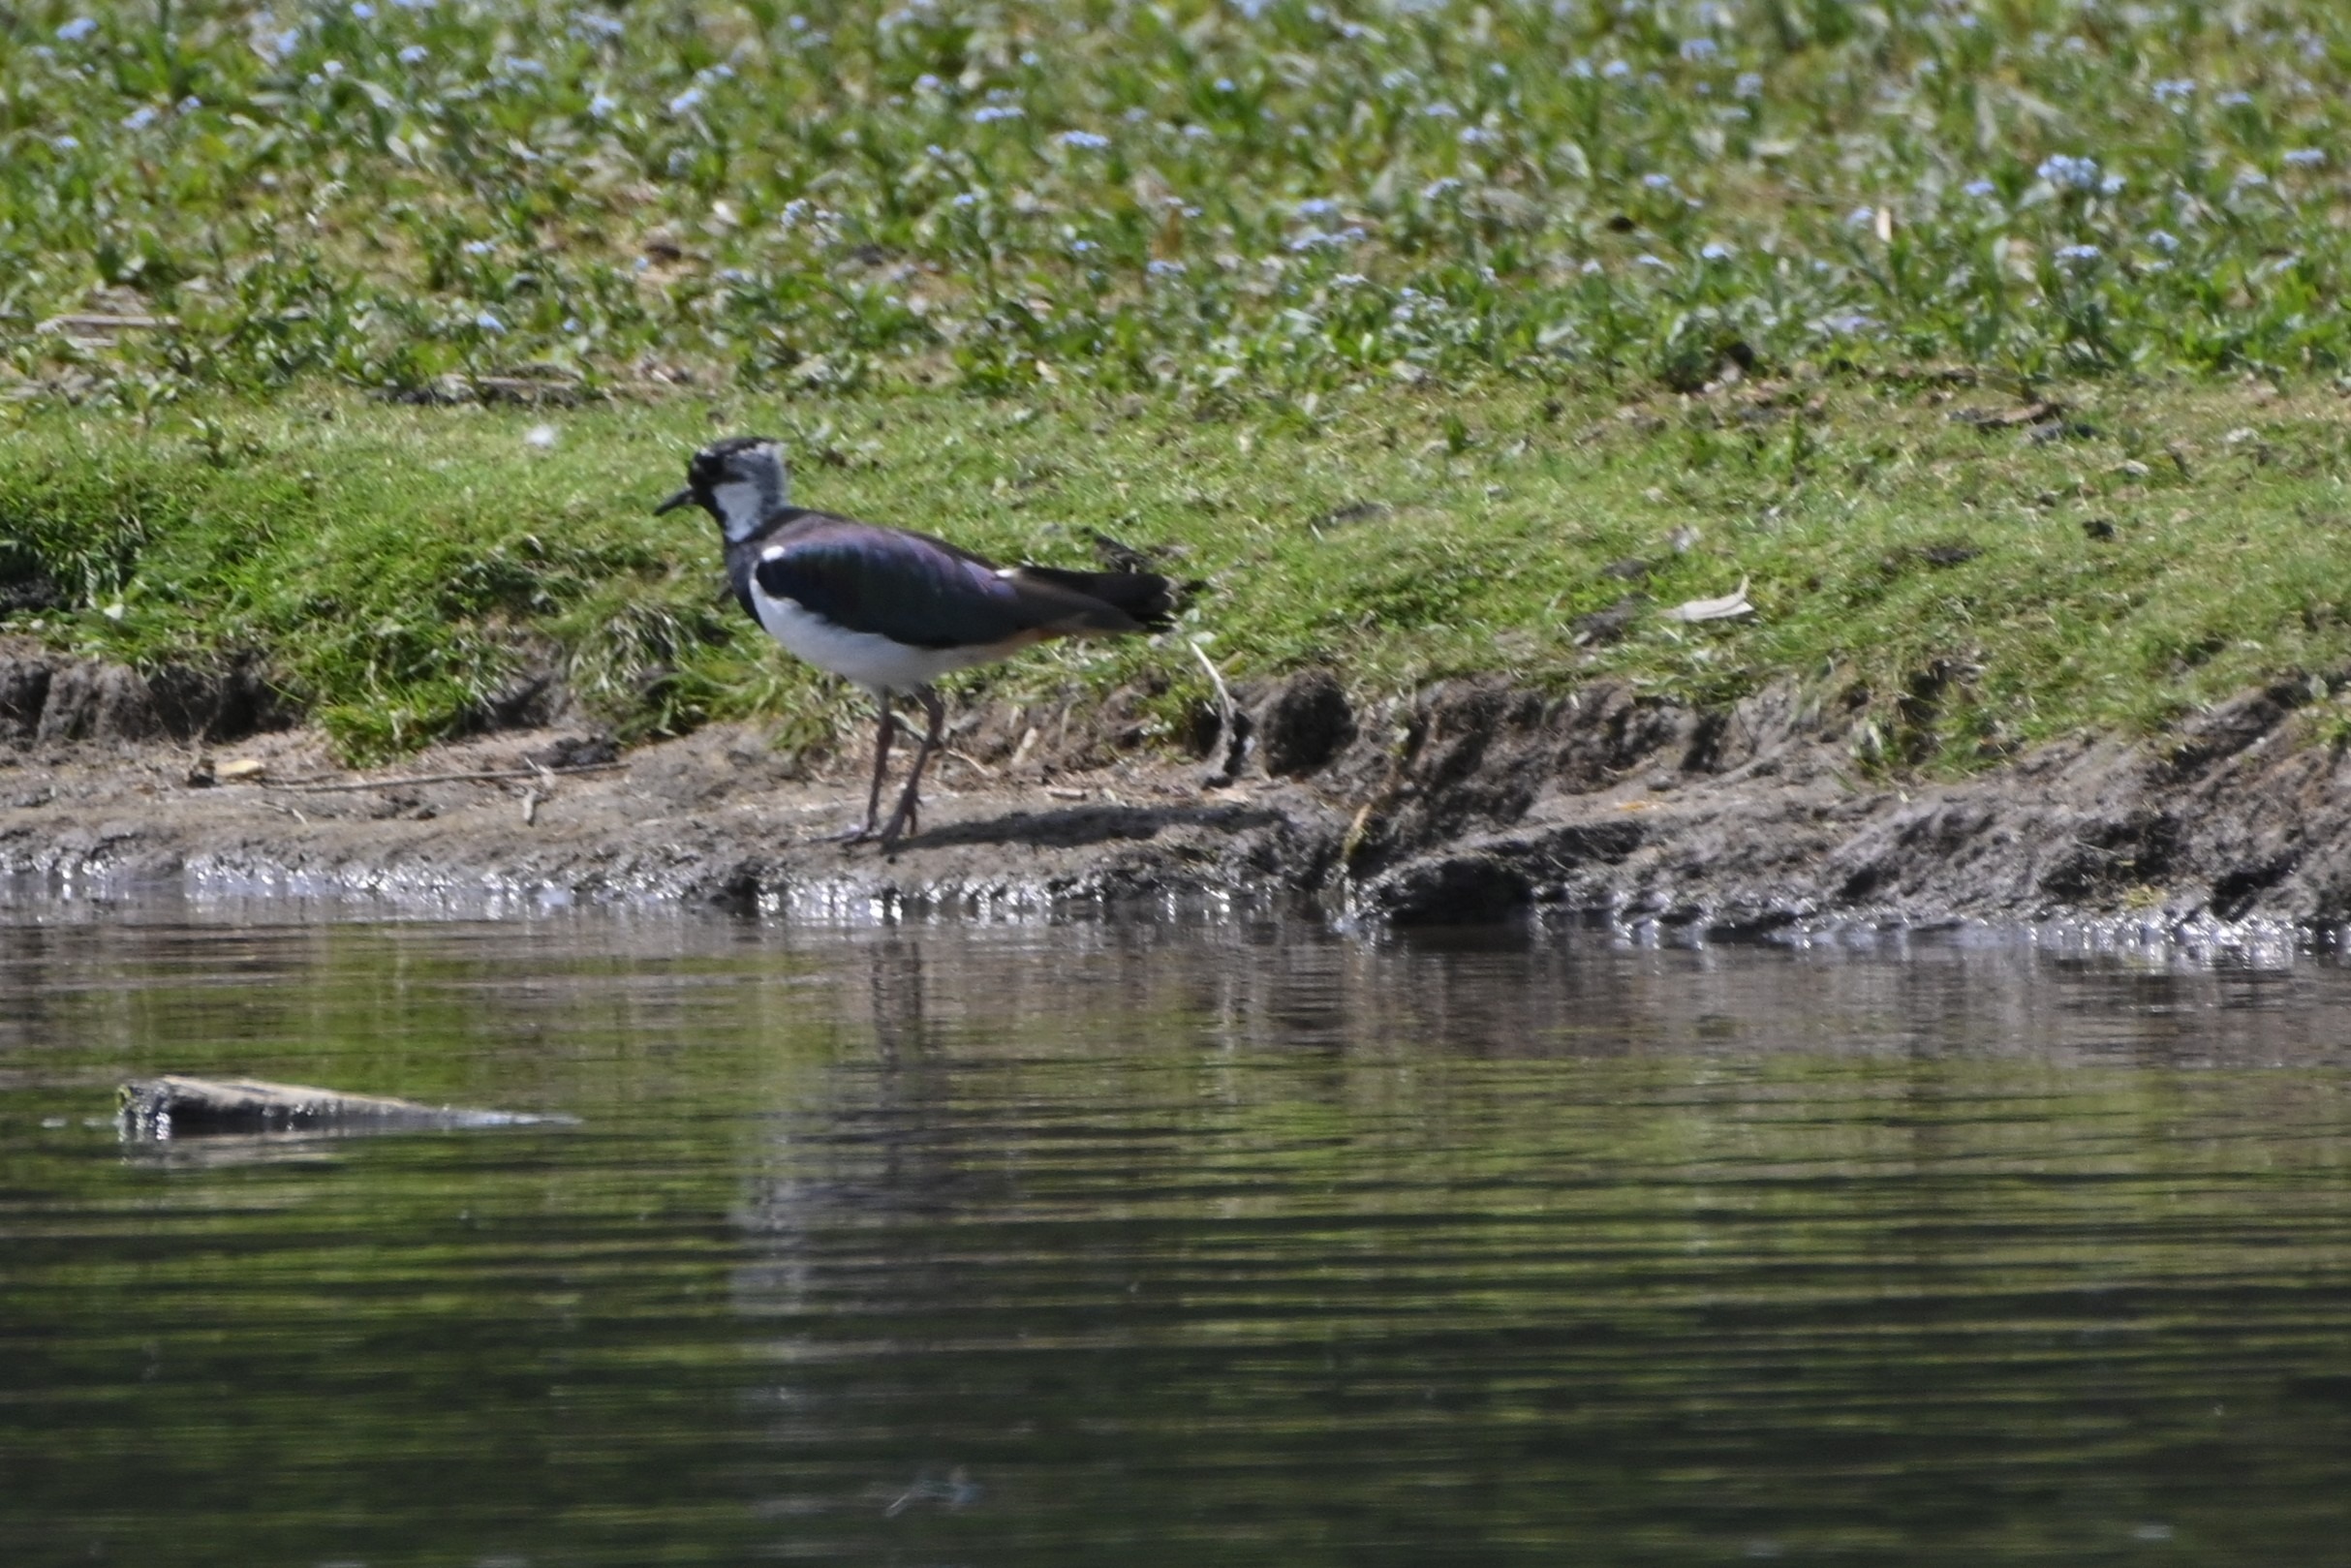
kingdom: Animalia
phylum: Chordata
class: Aves
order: Charadriiformes
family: Charadriidae
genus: Vanellus
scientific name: Vanellus vanellus
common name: Vibe
